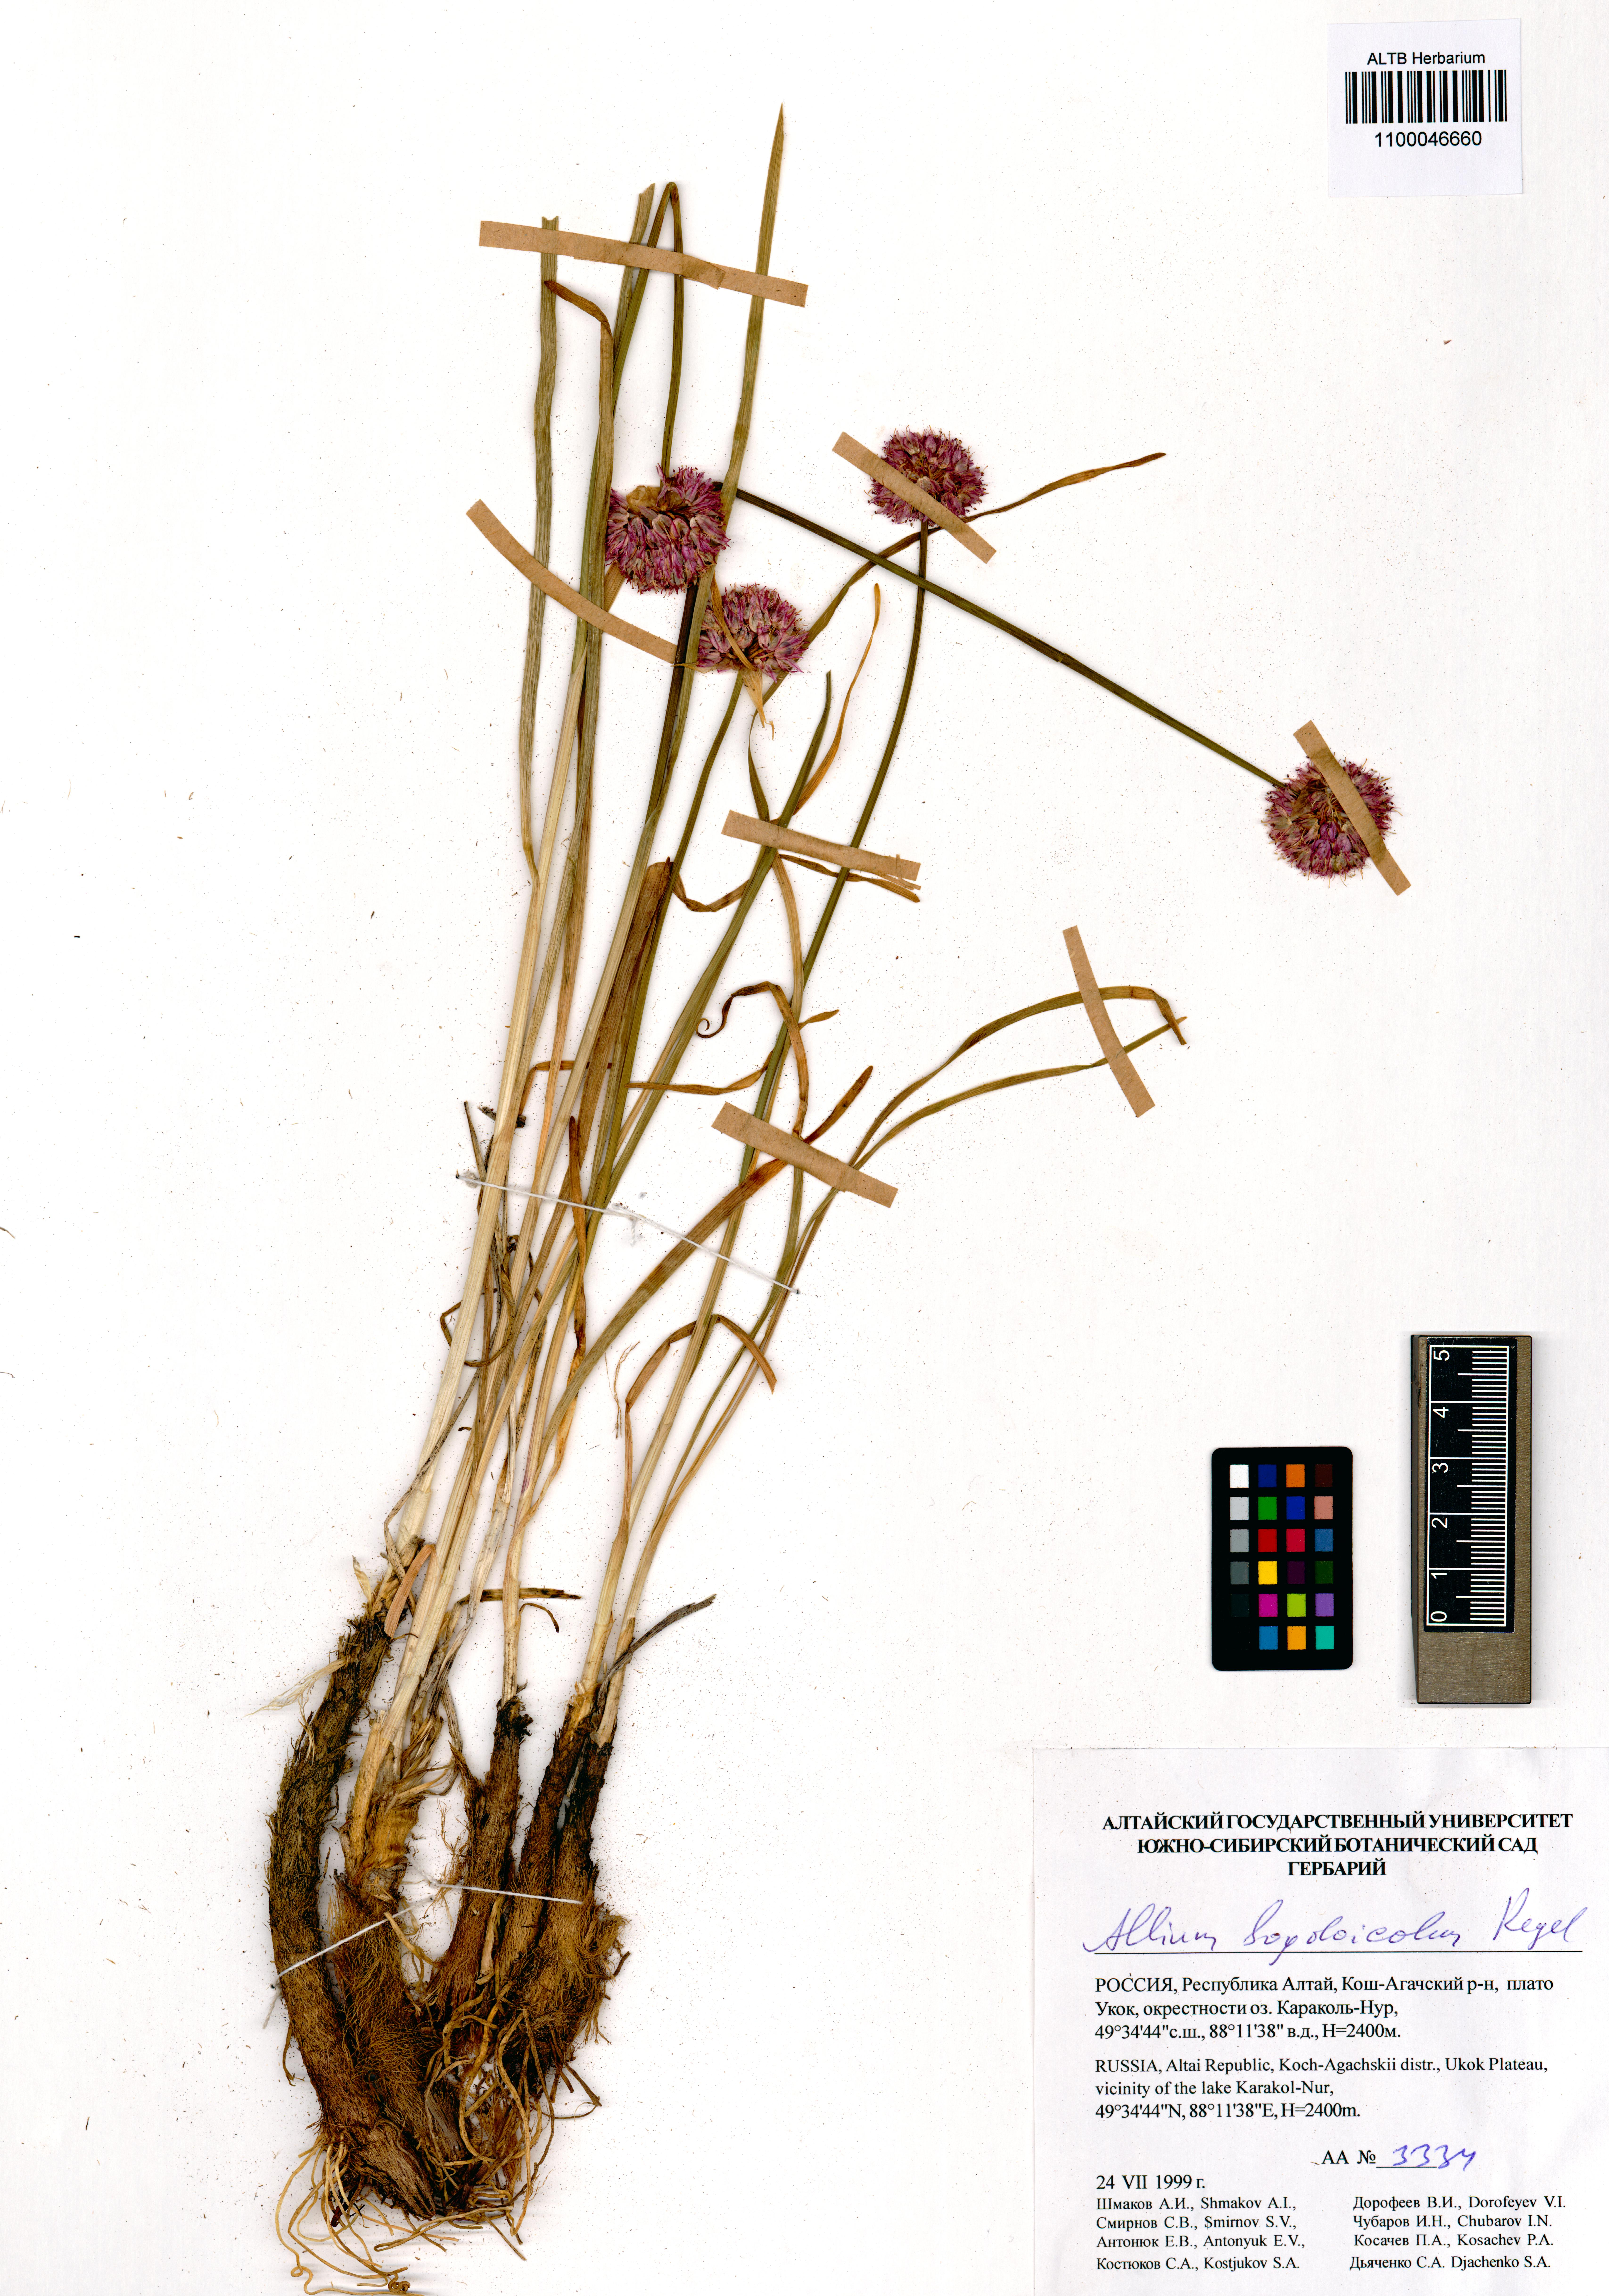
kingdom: Plantae
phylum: Tracheophyta
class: Liliopsida
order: Asparagales
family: Amaryllidaceae
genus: Allium
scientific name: Allium schrenkii
